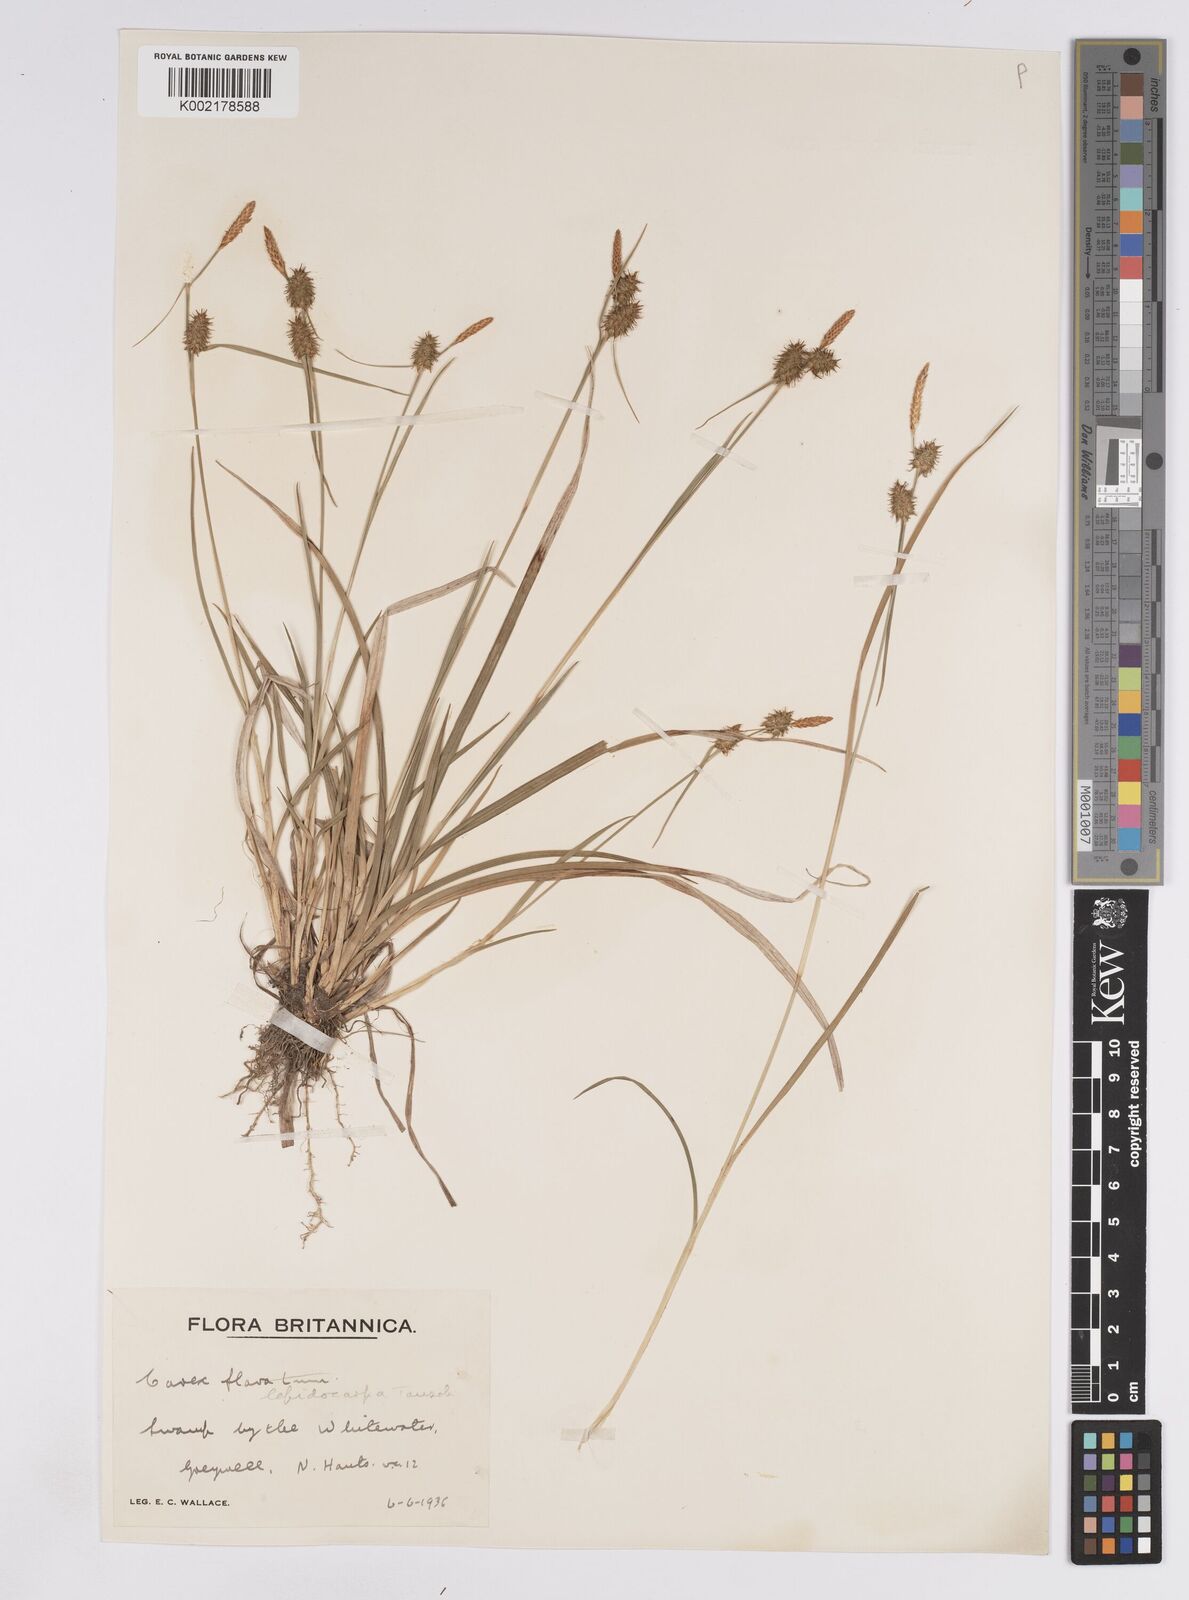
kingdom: Plantae
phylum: Tracheophyta
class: Liliopsida
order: Poales
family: Cyperaceae
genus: Carex
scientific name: Carex lepidocarpa
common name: Long-stalked yellow-sedge
